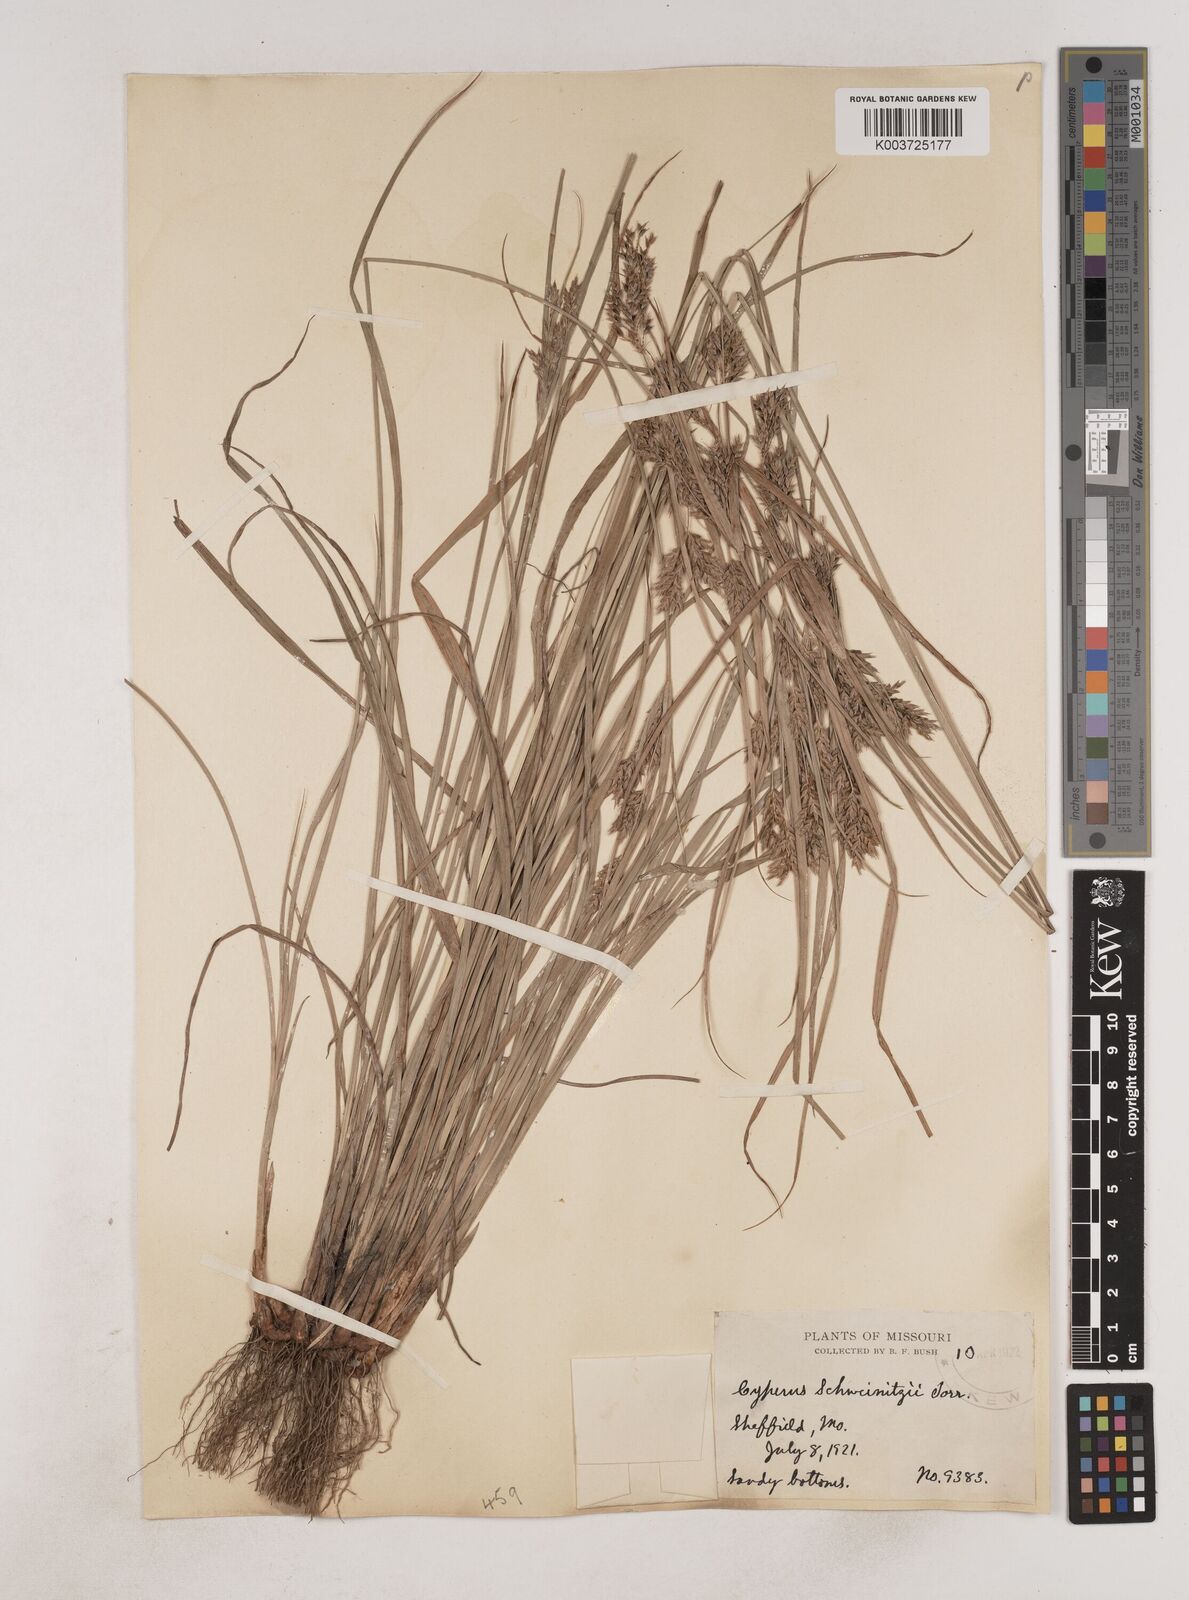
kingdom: Plantae
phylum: Tracheophyta
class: Liliopsida
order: Poales
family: Cyperaceae
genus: Cyperus
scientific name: Cyperus schweinitzii
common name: Schweinitz's cyperus
